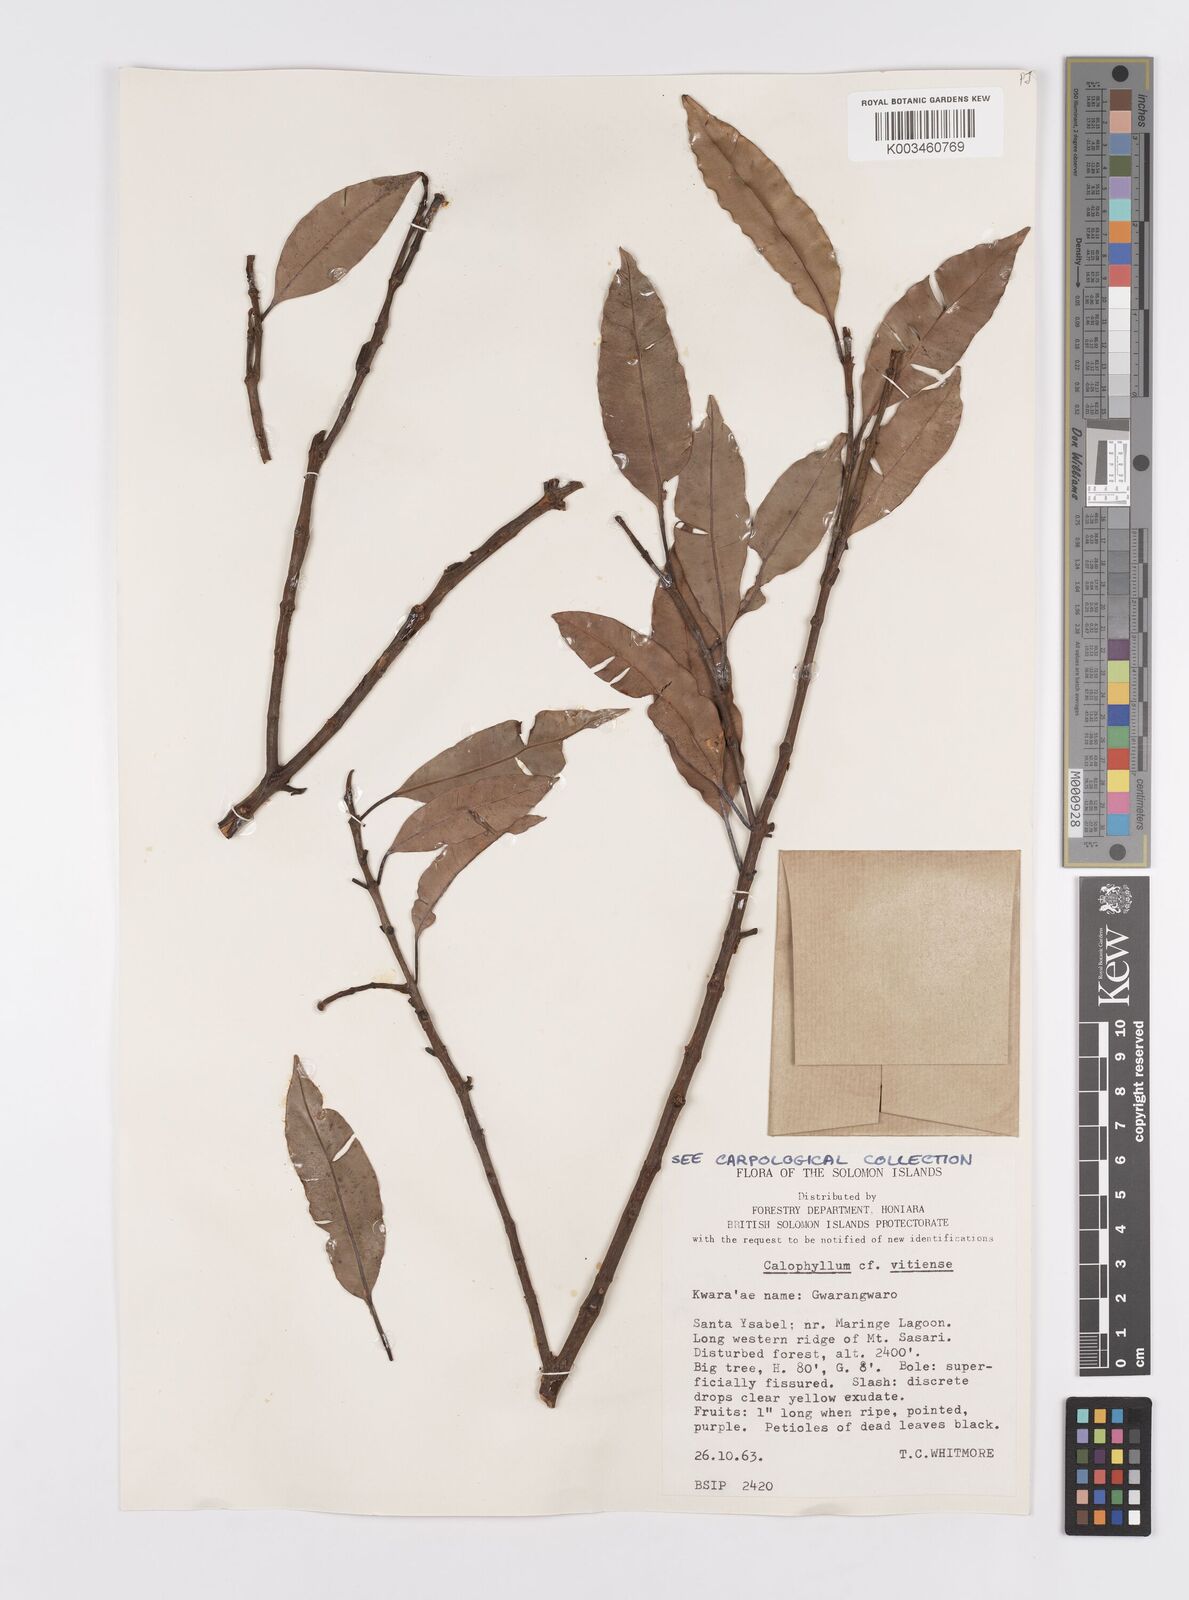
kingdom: Plantae
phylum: Tracheophyta
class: Magnoliopsida
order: Malpighiales
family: Calophyllaceae
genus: Calophyllum
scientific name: Calophyllum vitiense
